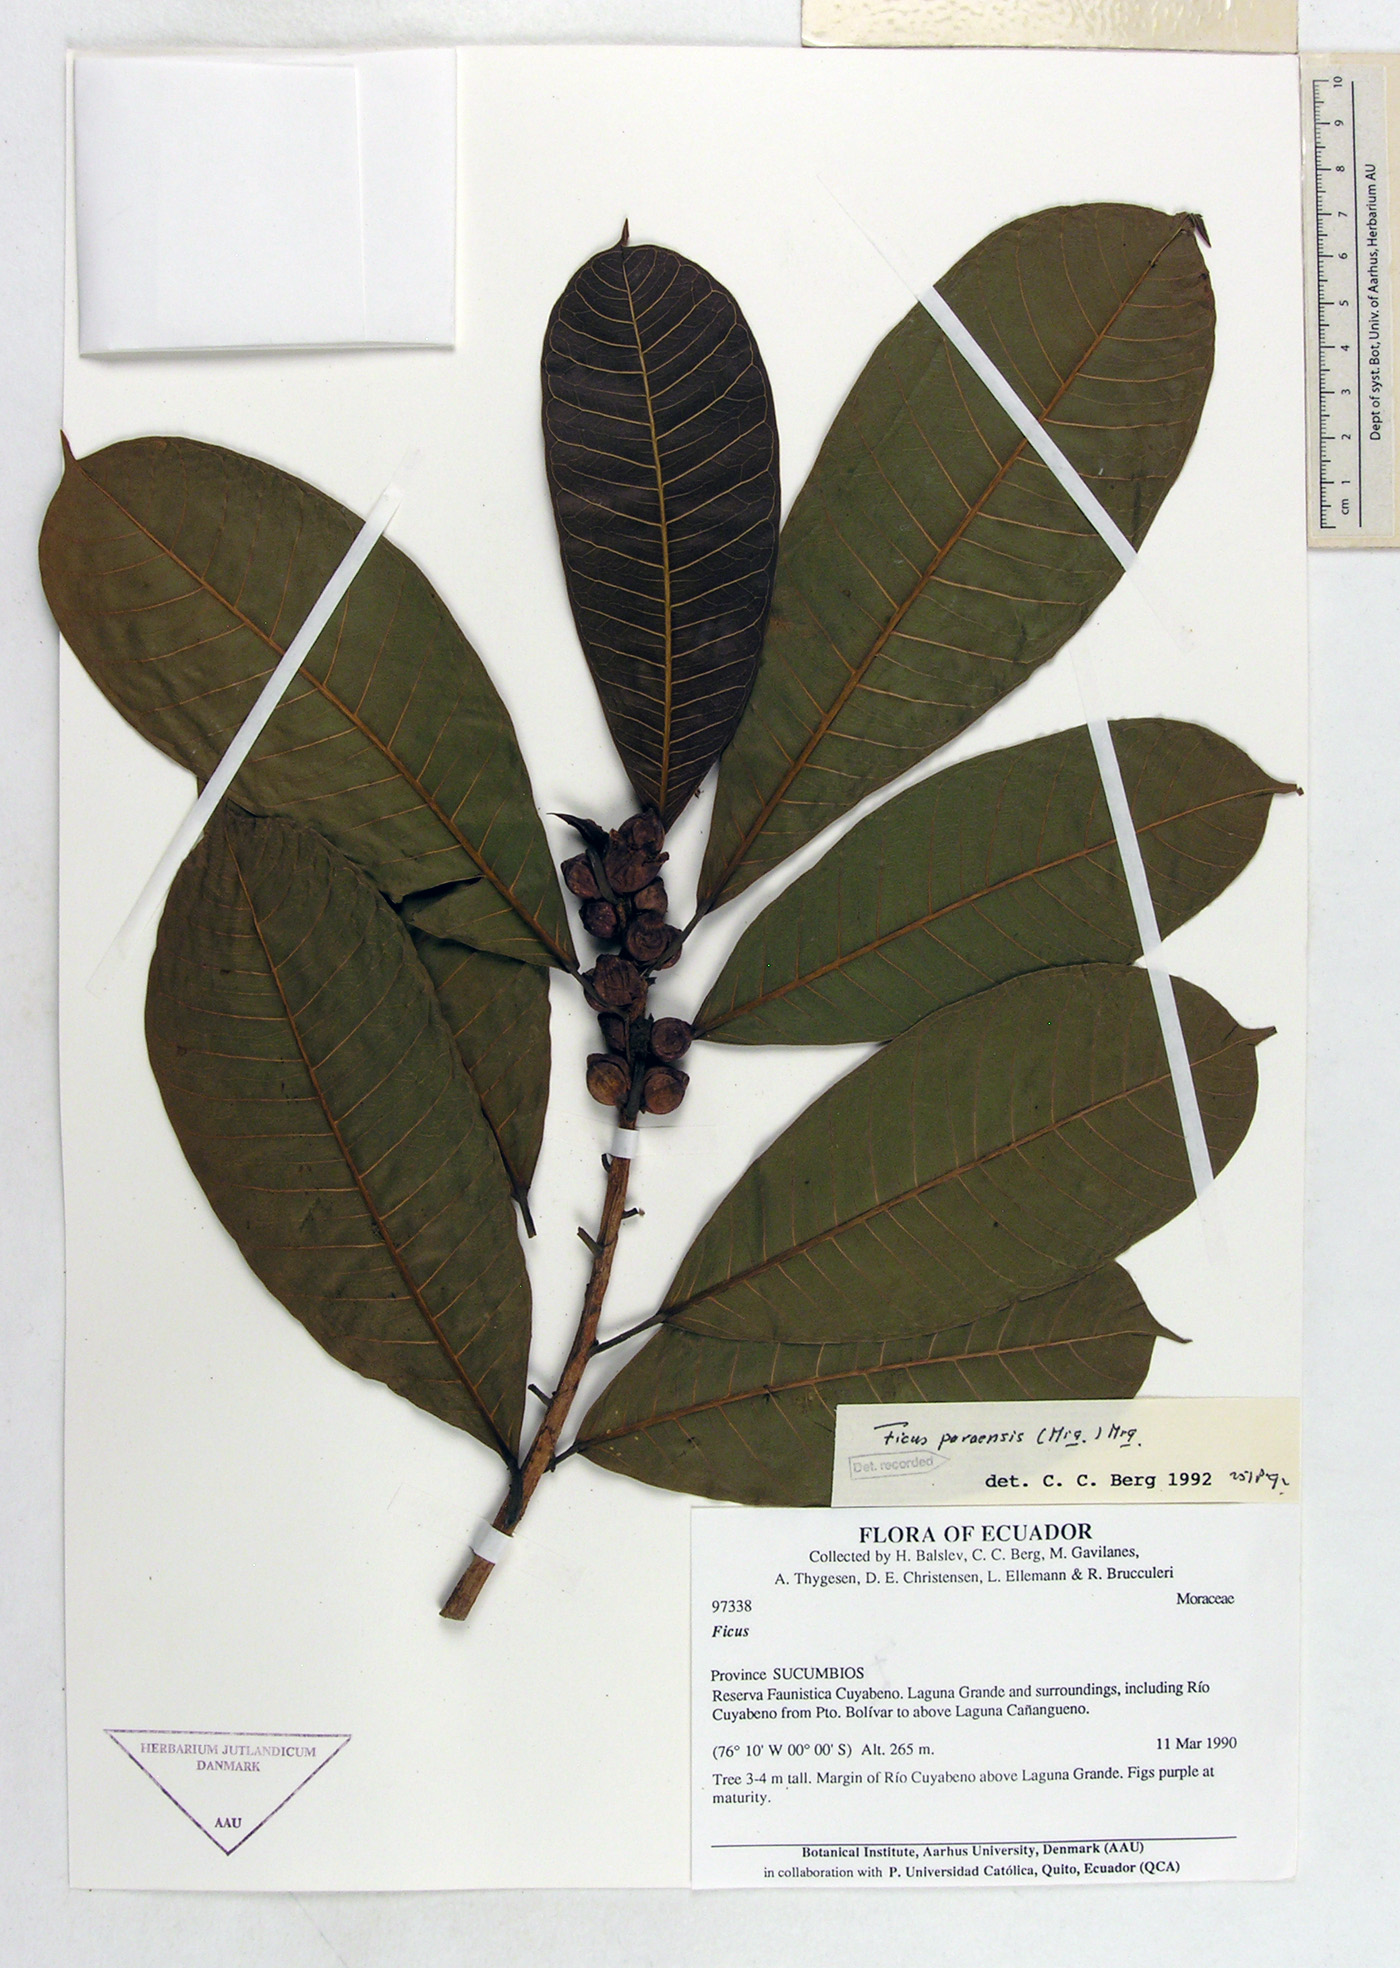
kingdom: Plantae
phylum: Tracheophyta
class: Magnoliopsida
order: Rosales
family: Moraceae
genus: Ficus
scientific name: Ficus paraensis
